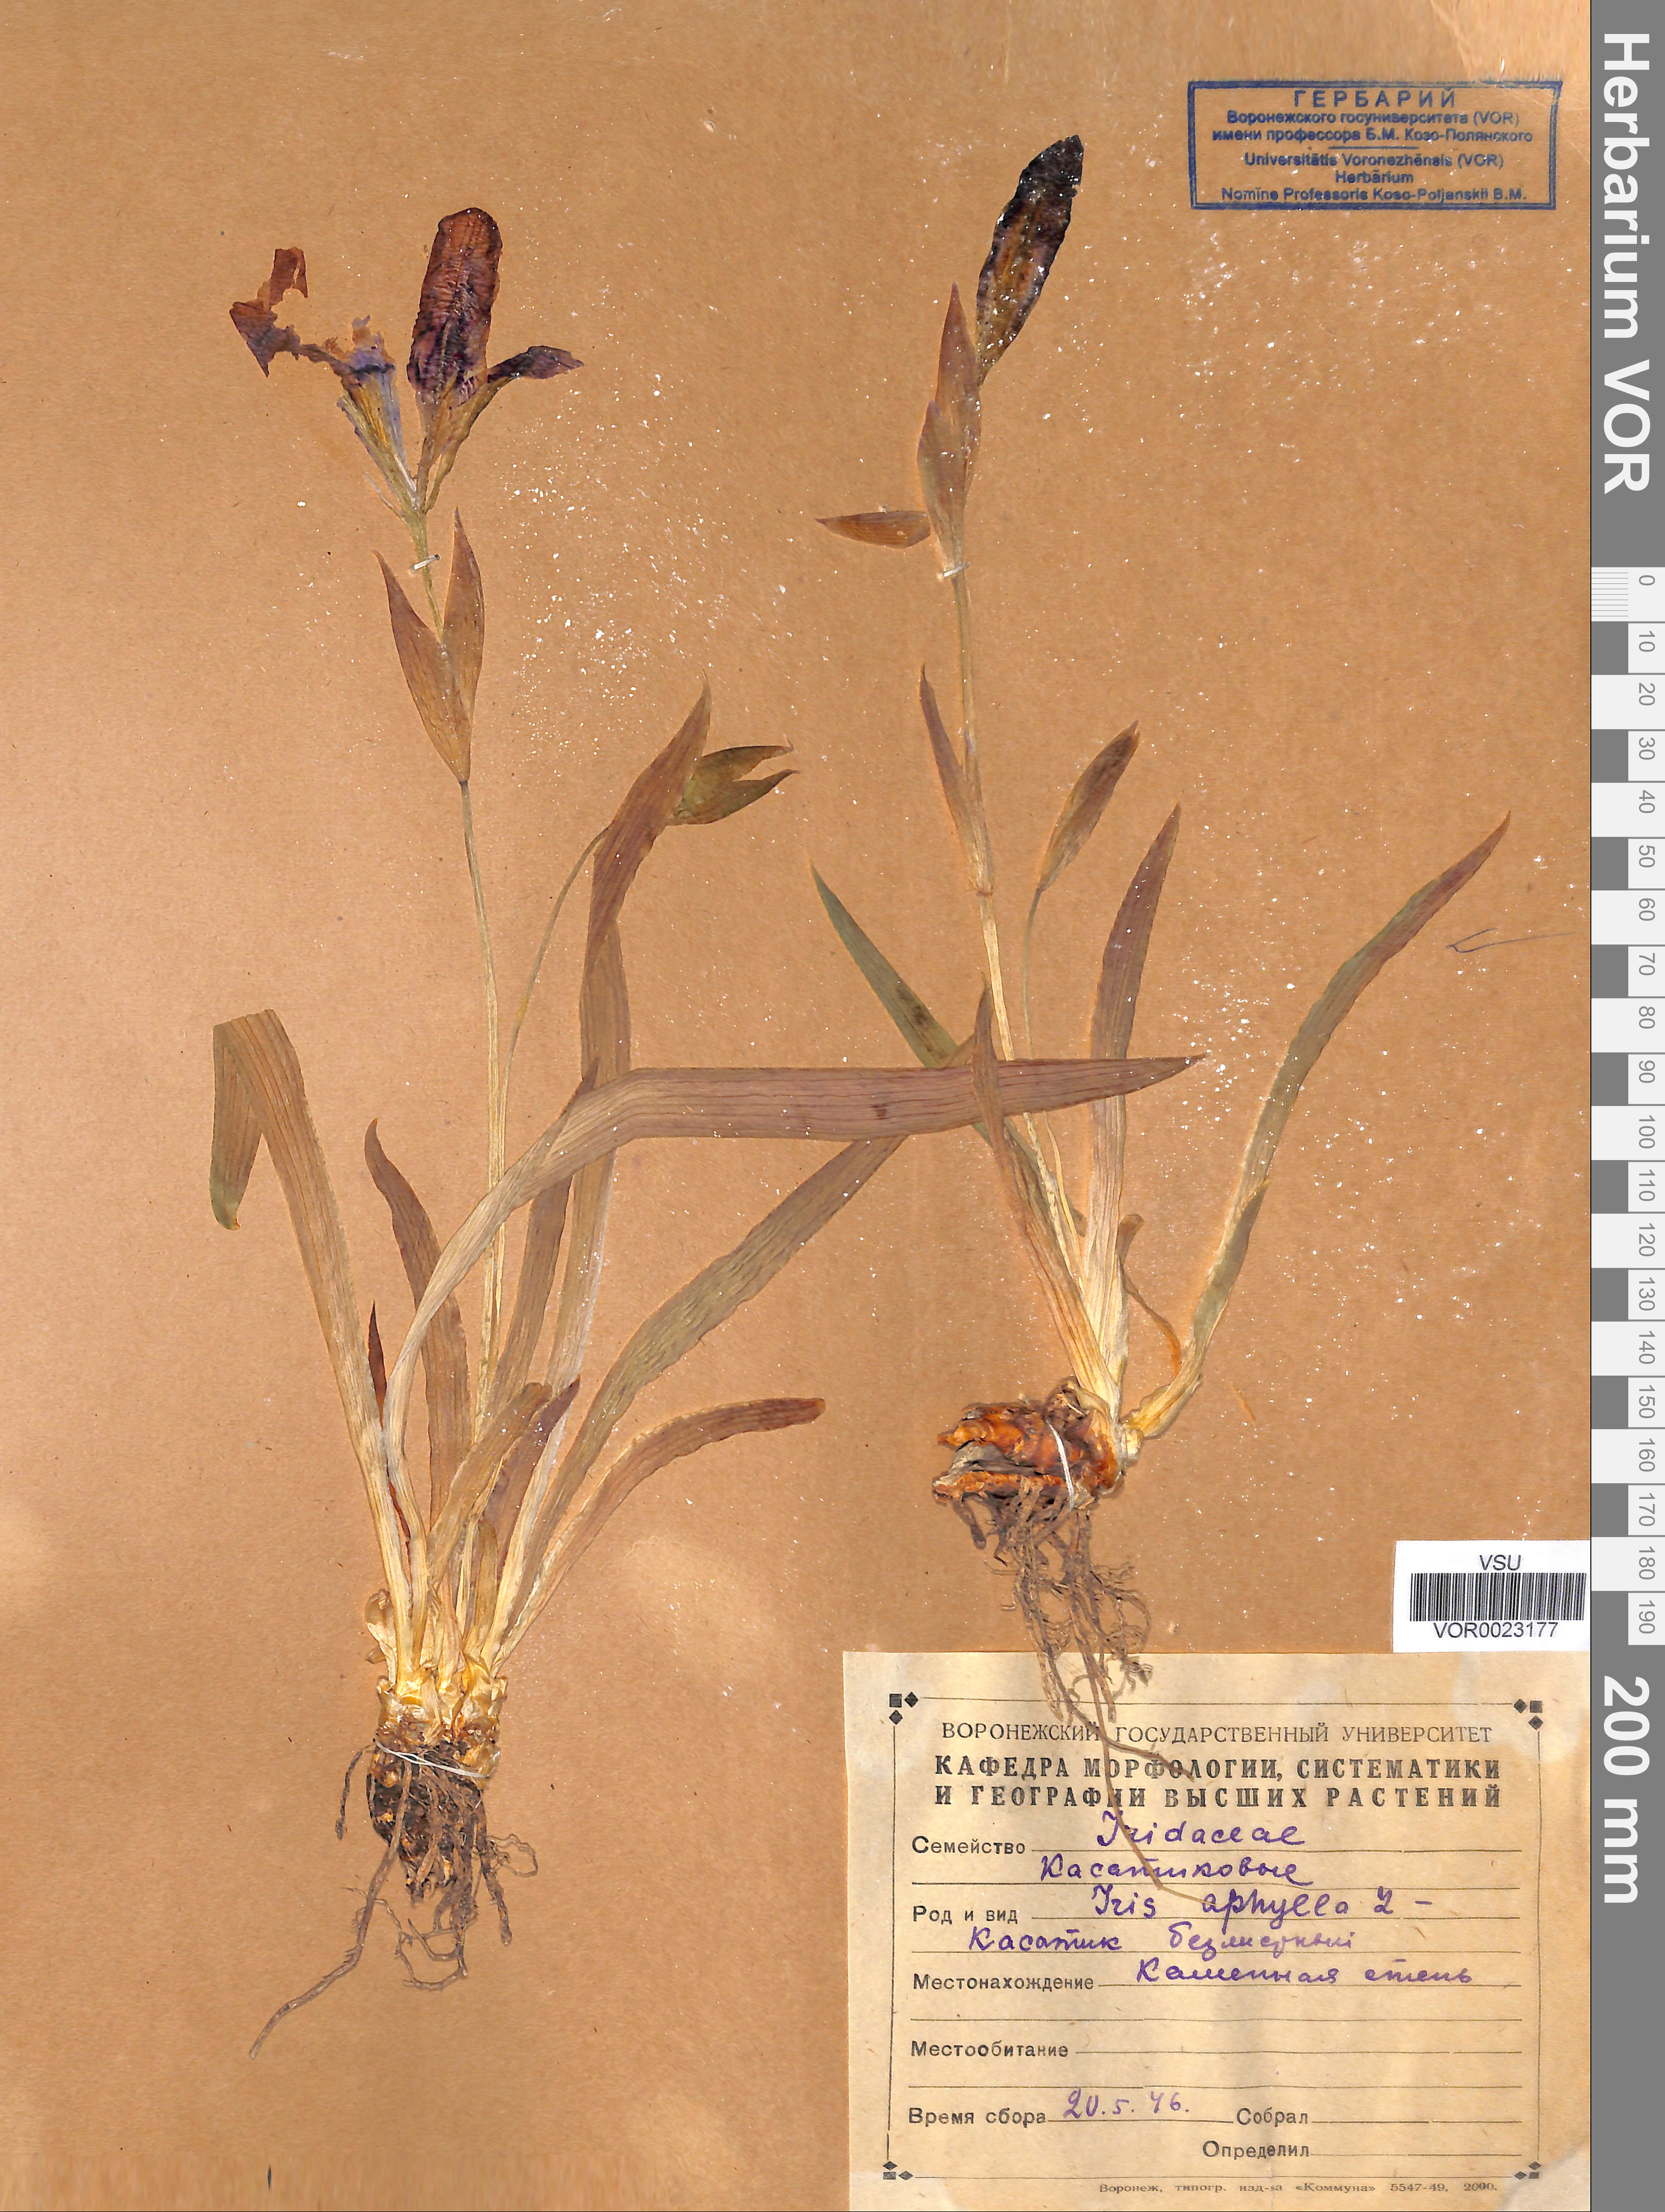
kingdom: Plantae
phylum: Tracheophyta
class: Liliopsida
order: Asparagales
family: Iridaceae
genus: Iris
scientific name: Iris aphylla
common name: Stool iris
